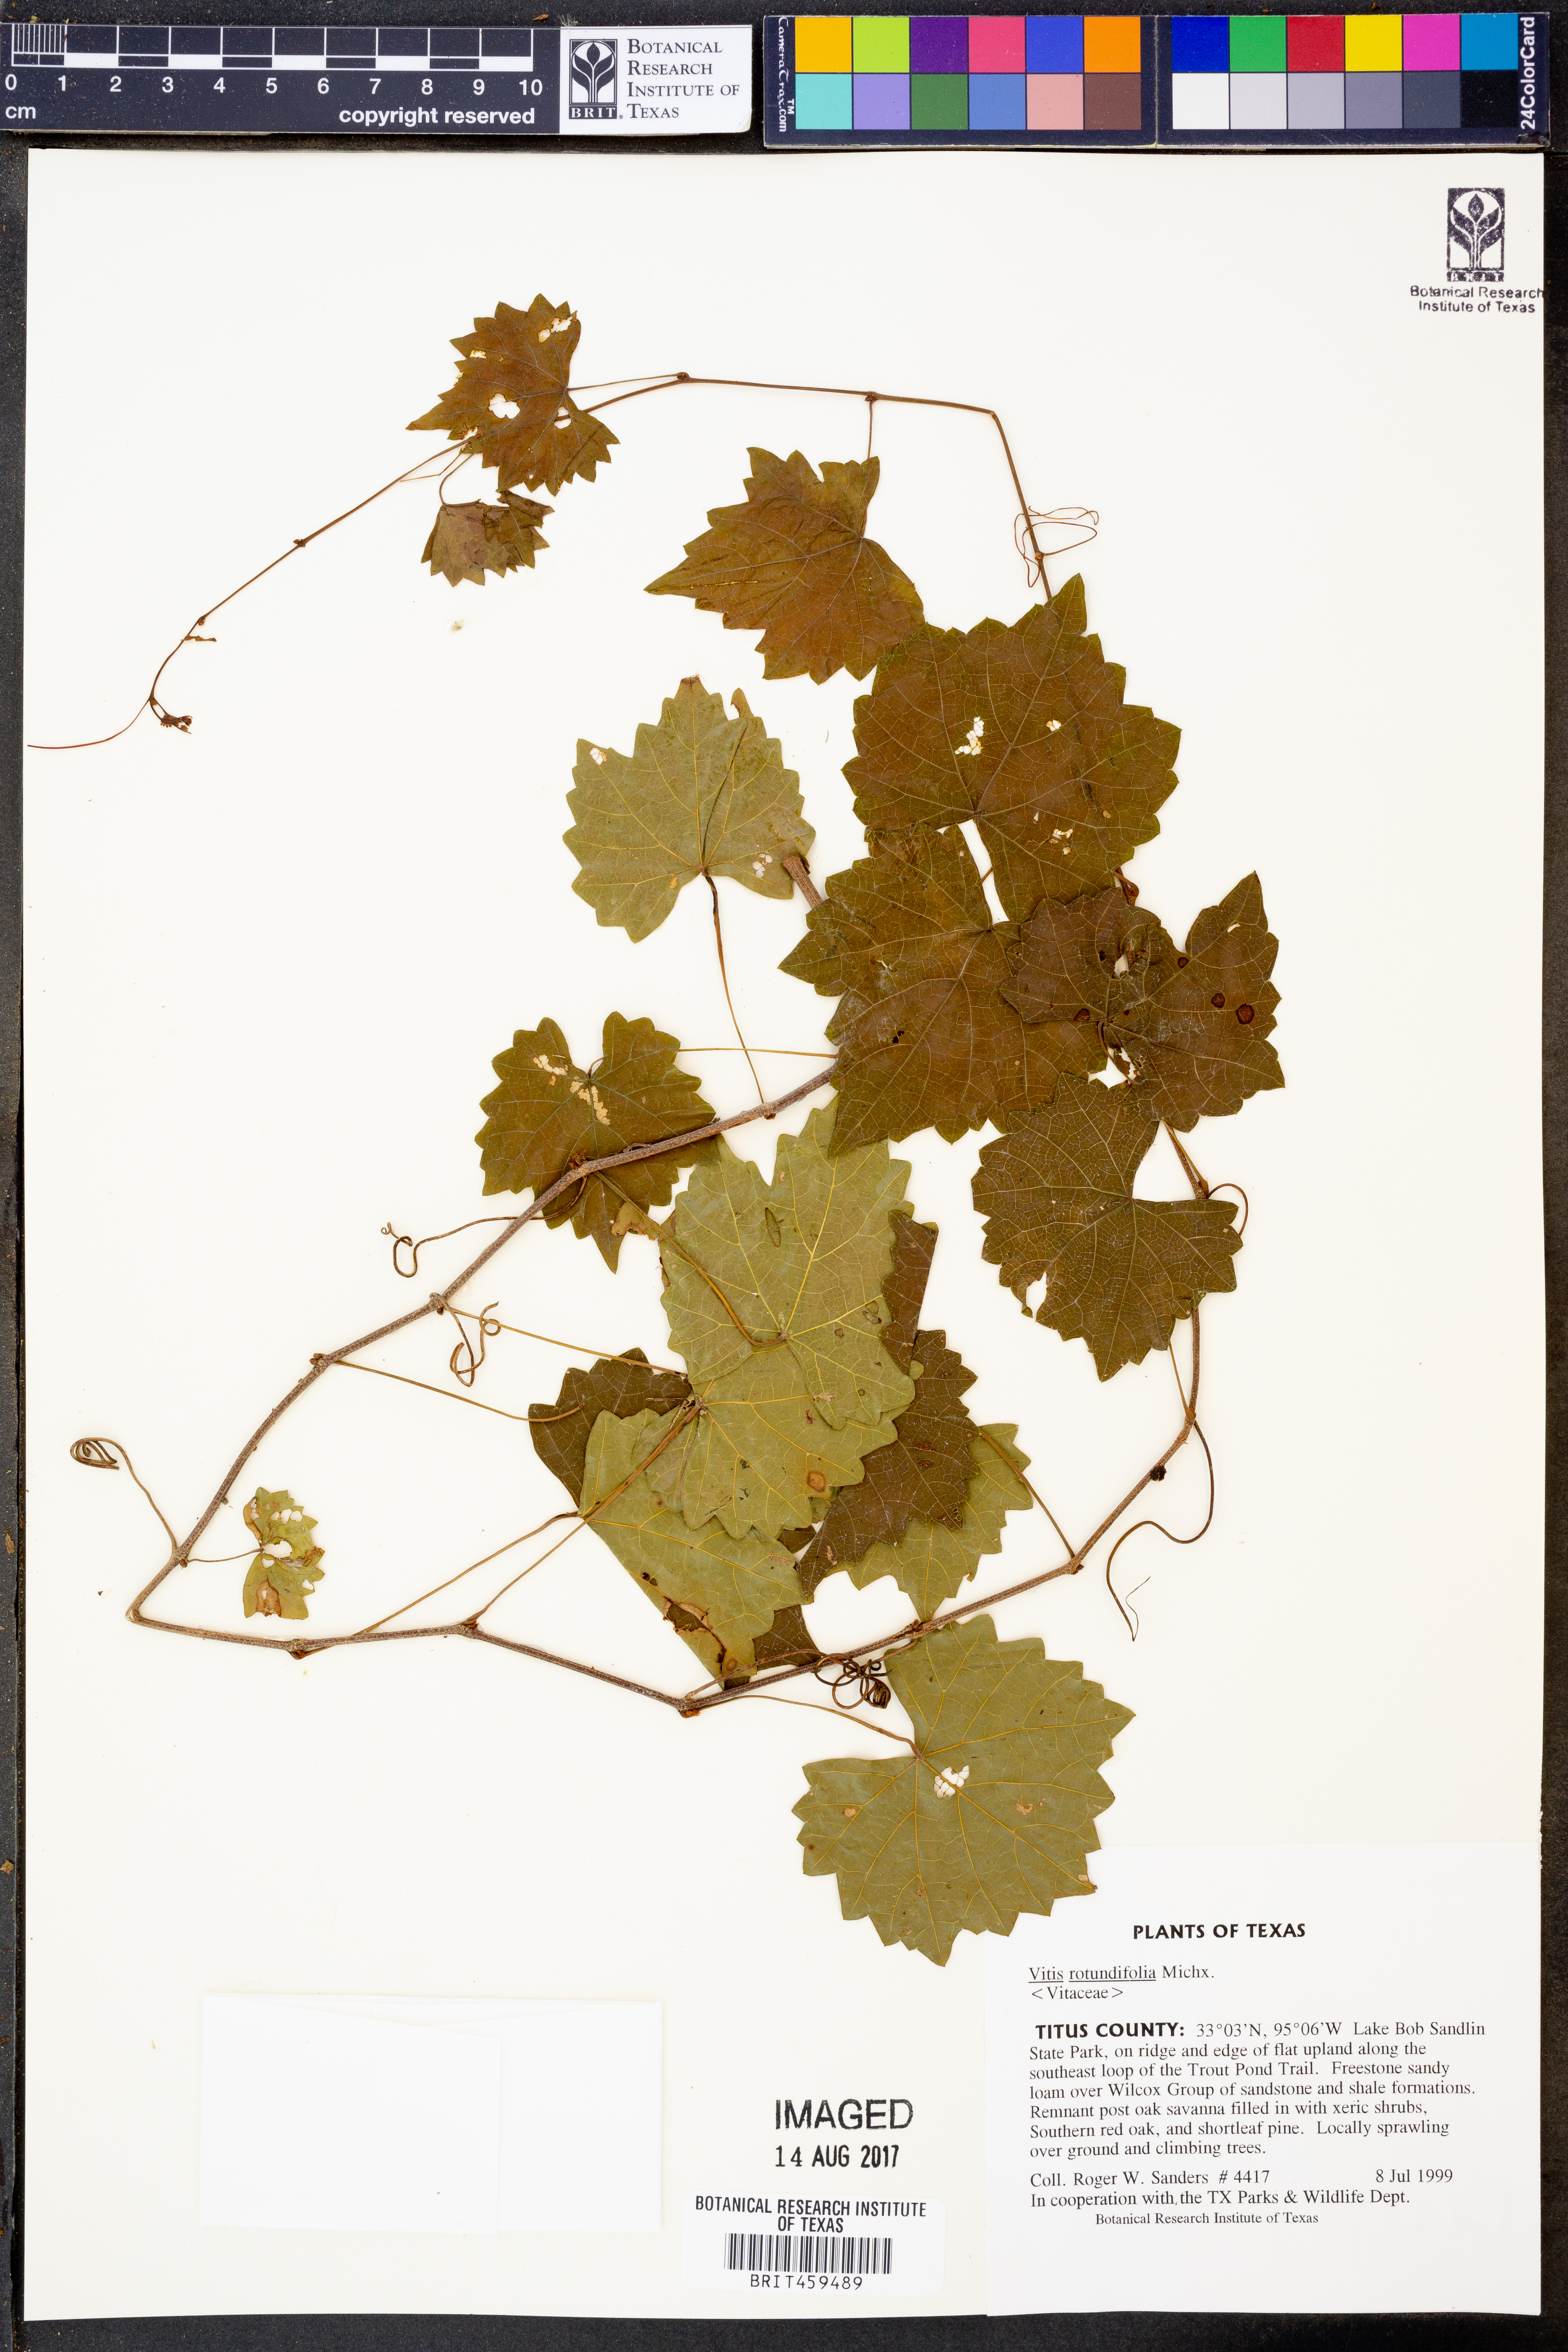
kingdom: Plantae
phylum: Tracheophyta
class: Magnoliopsida
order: Vitales
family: Vitaceae
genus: Vitis
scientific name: Vitis rotundifolia
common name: Muscadine grape
